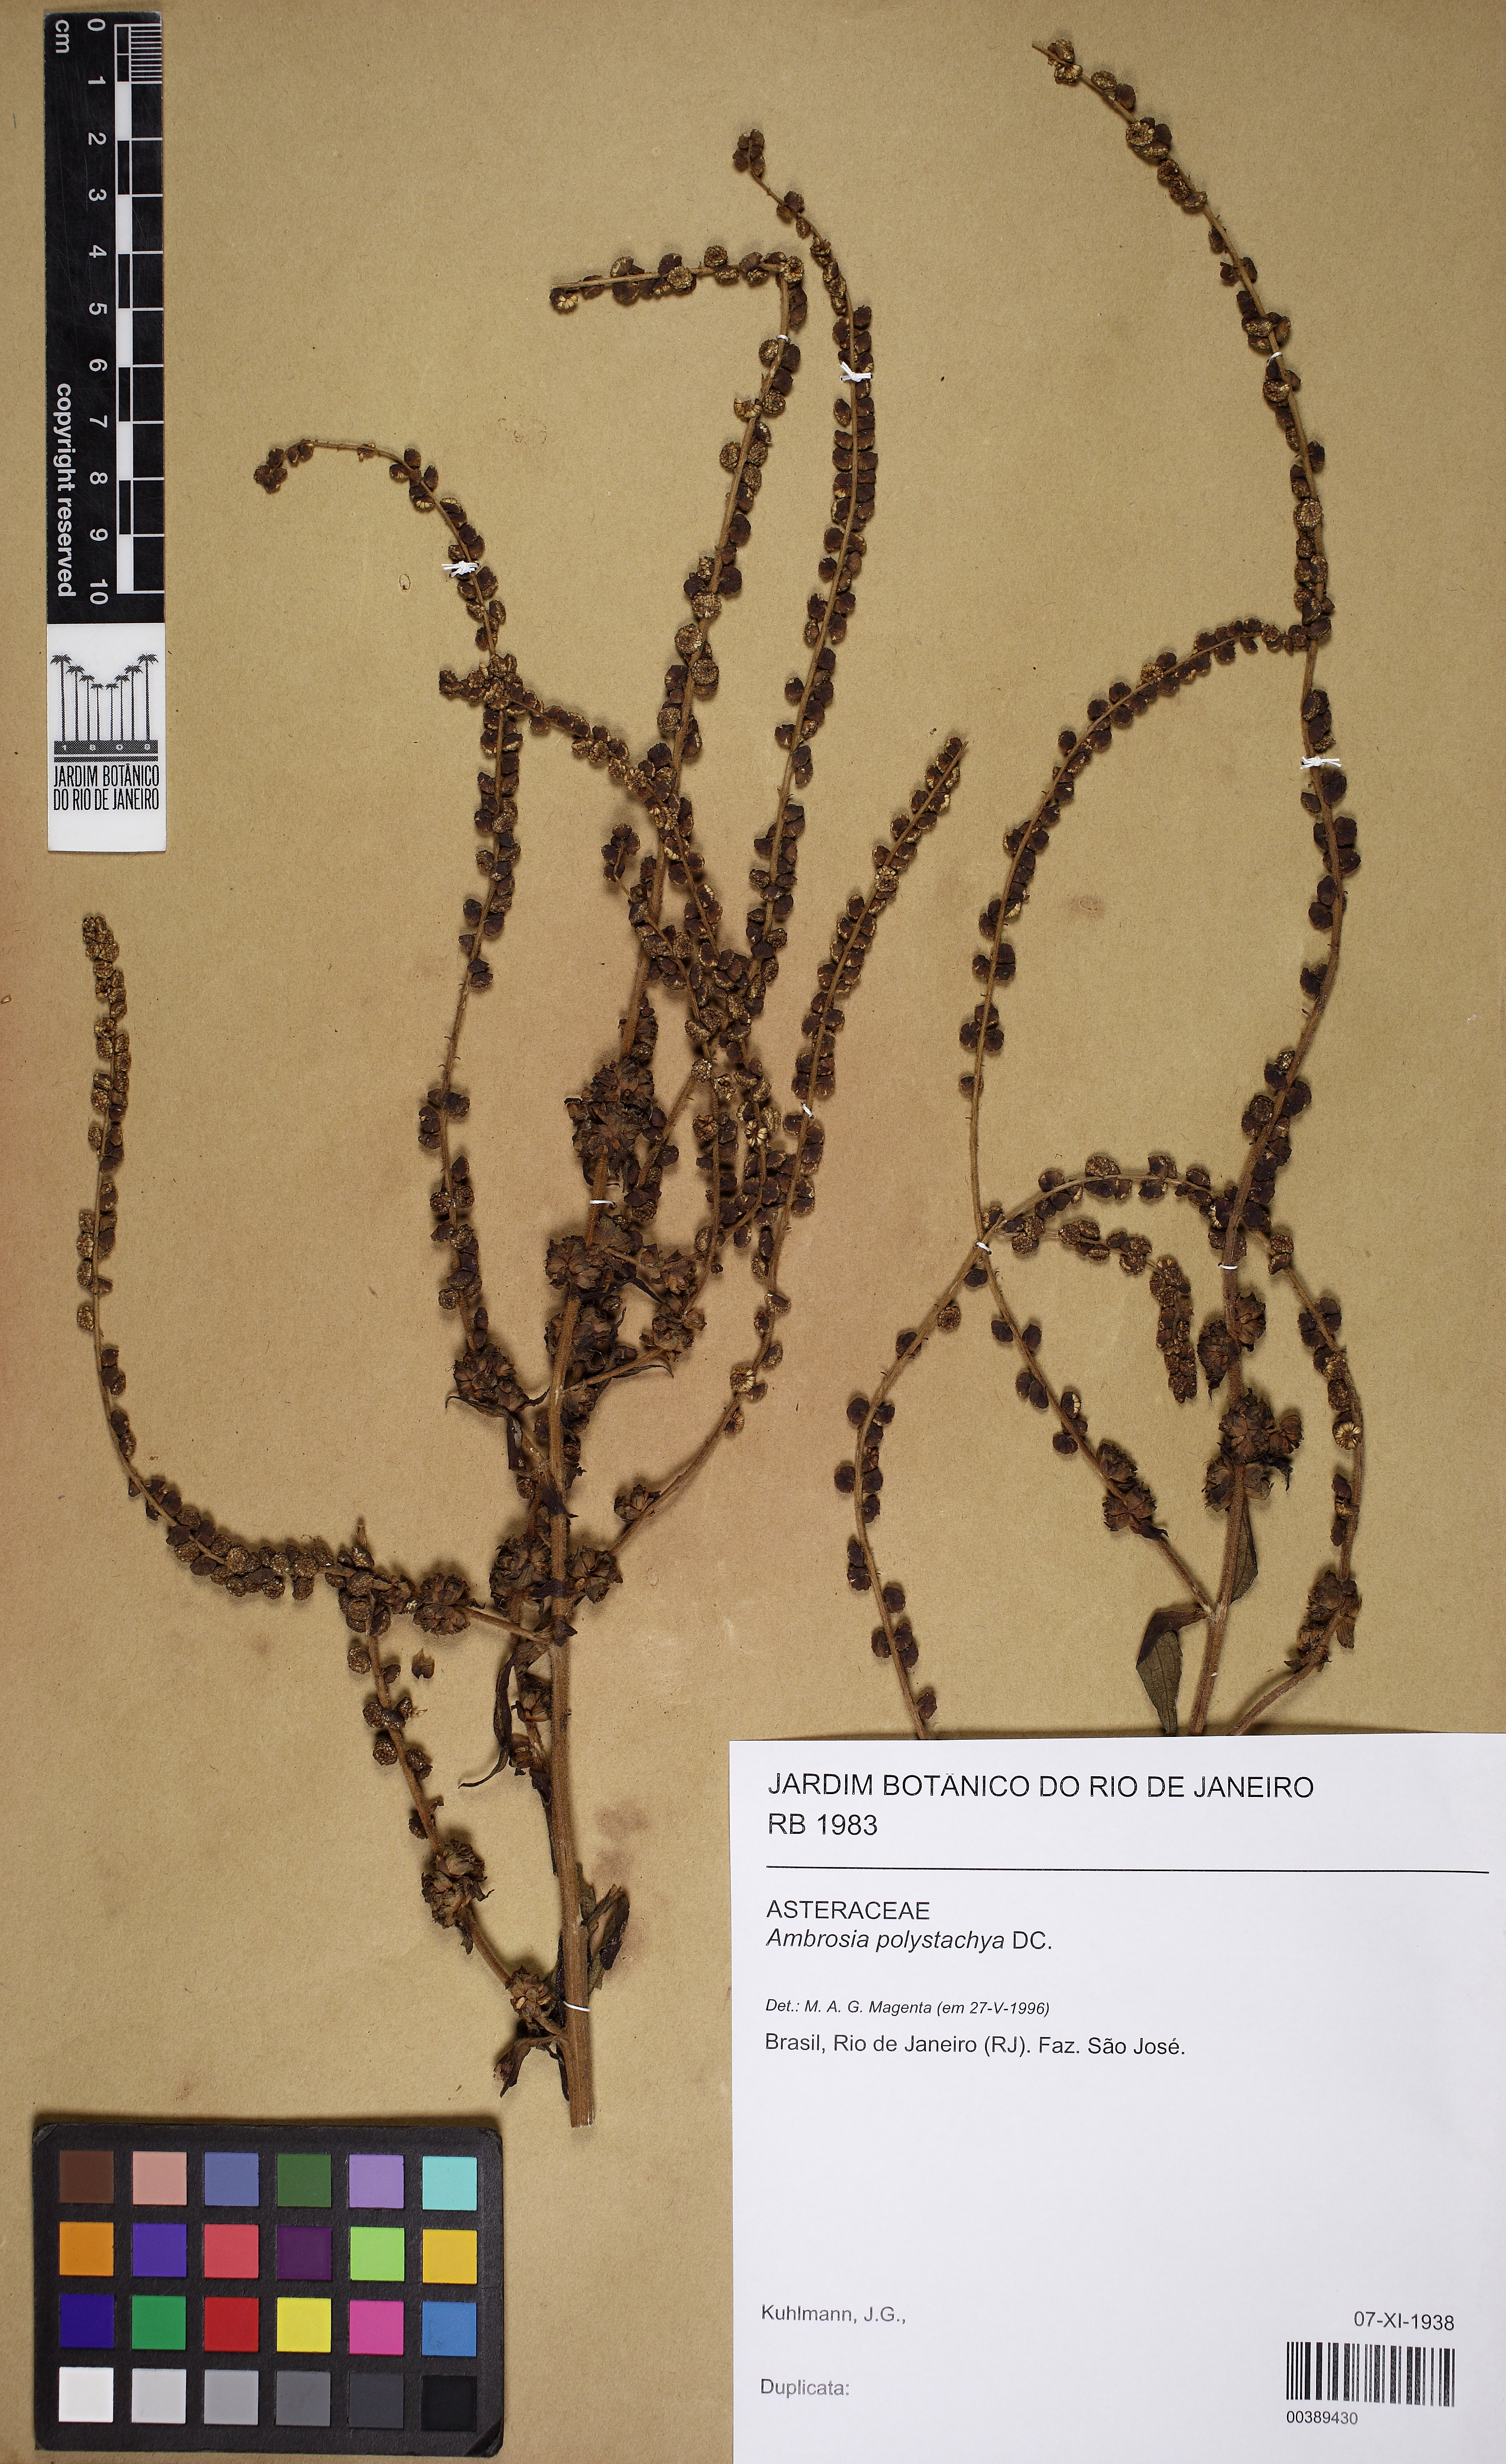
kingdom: Plantae
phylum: Tracheophyta
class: Magnoliopsida
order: Asterales
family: Asteraceae
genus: Ambrosia
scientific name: Ambrosia polystachya
